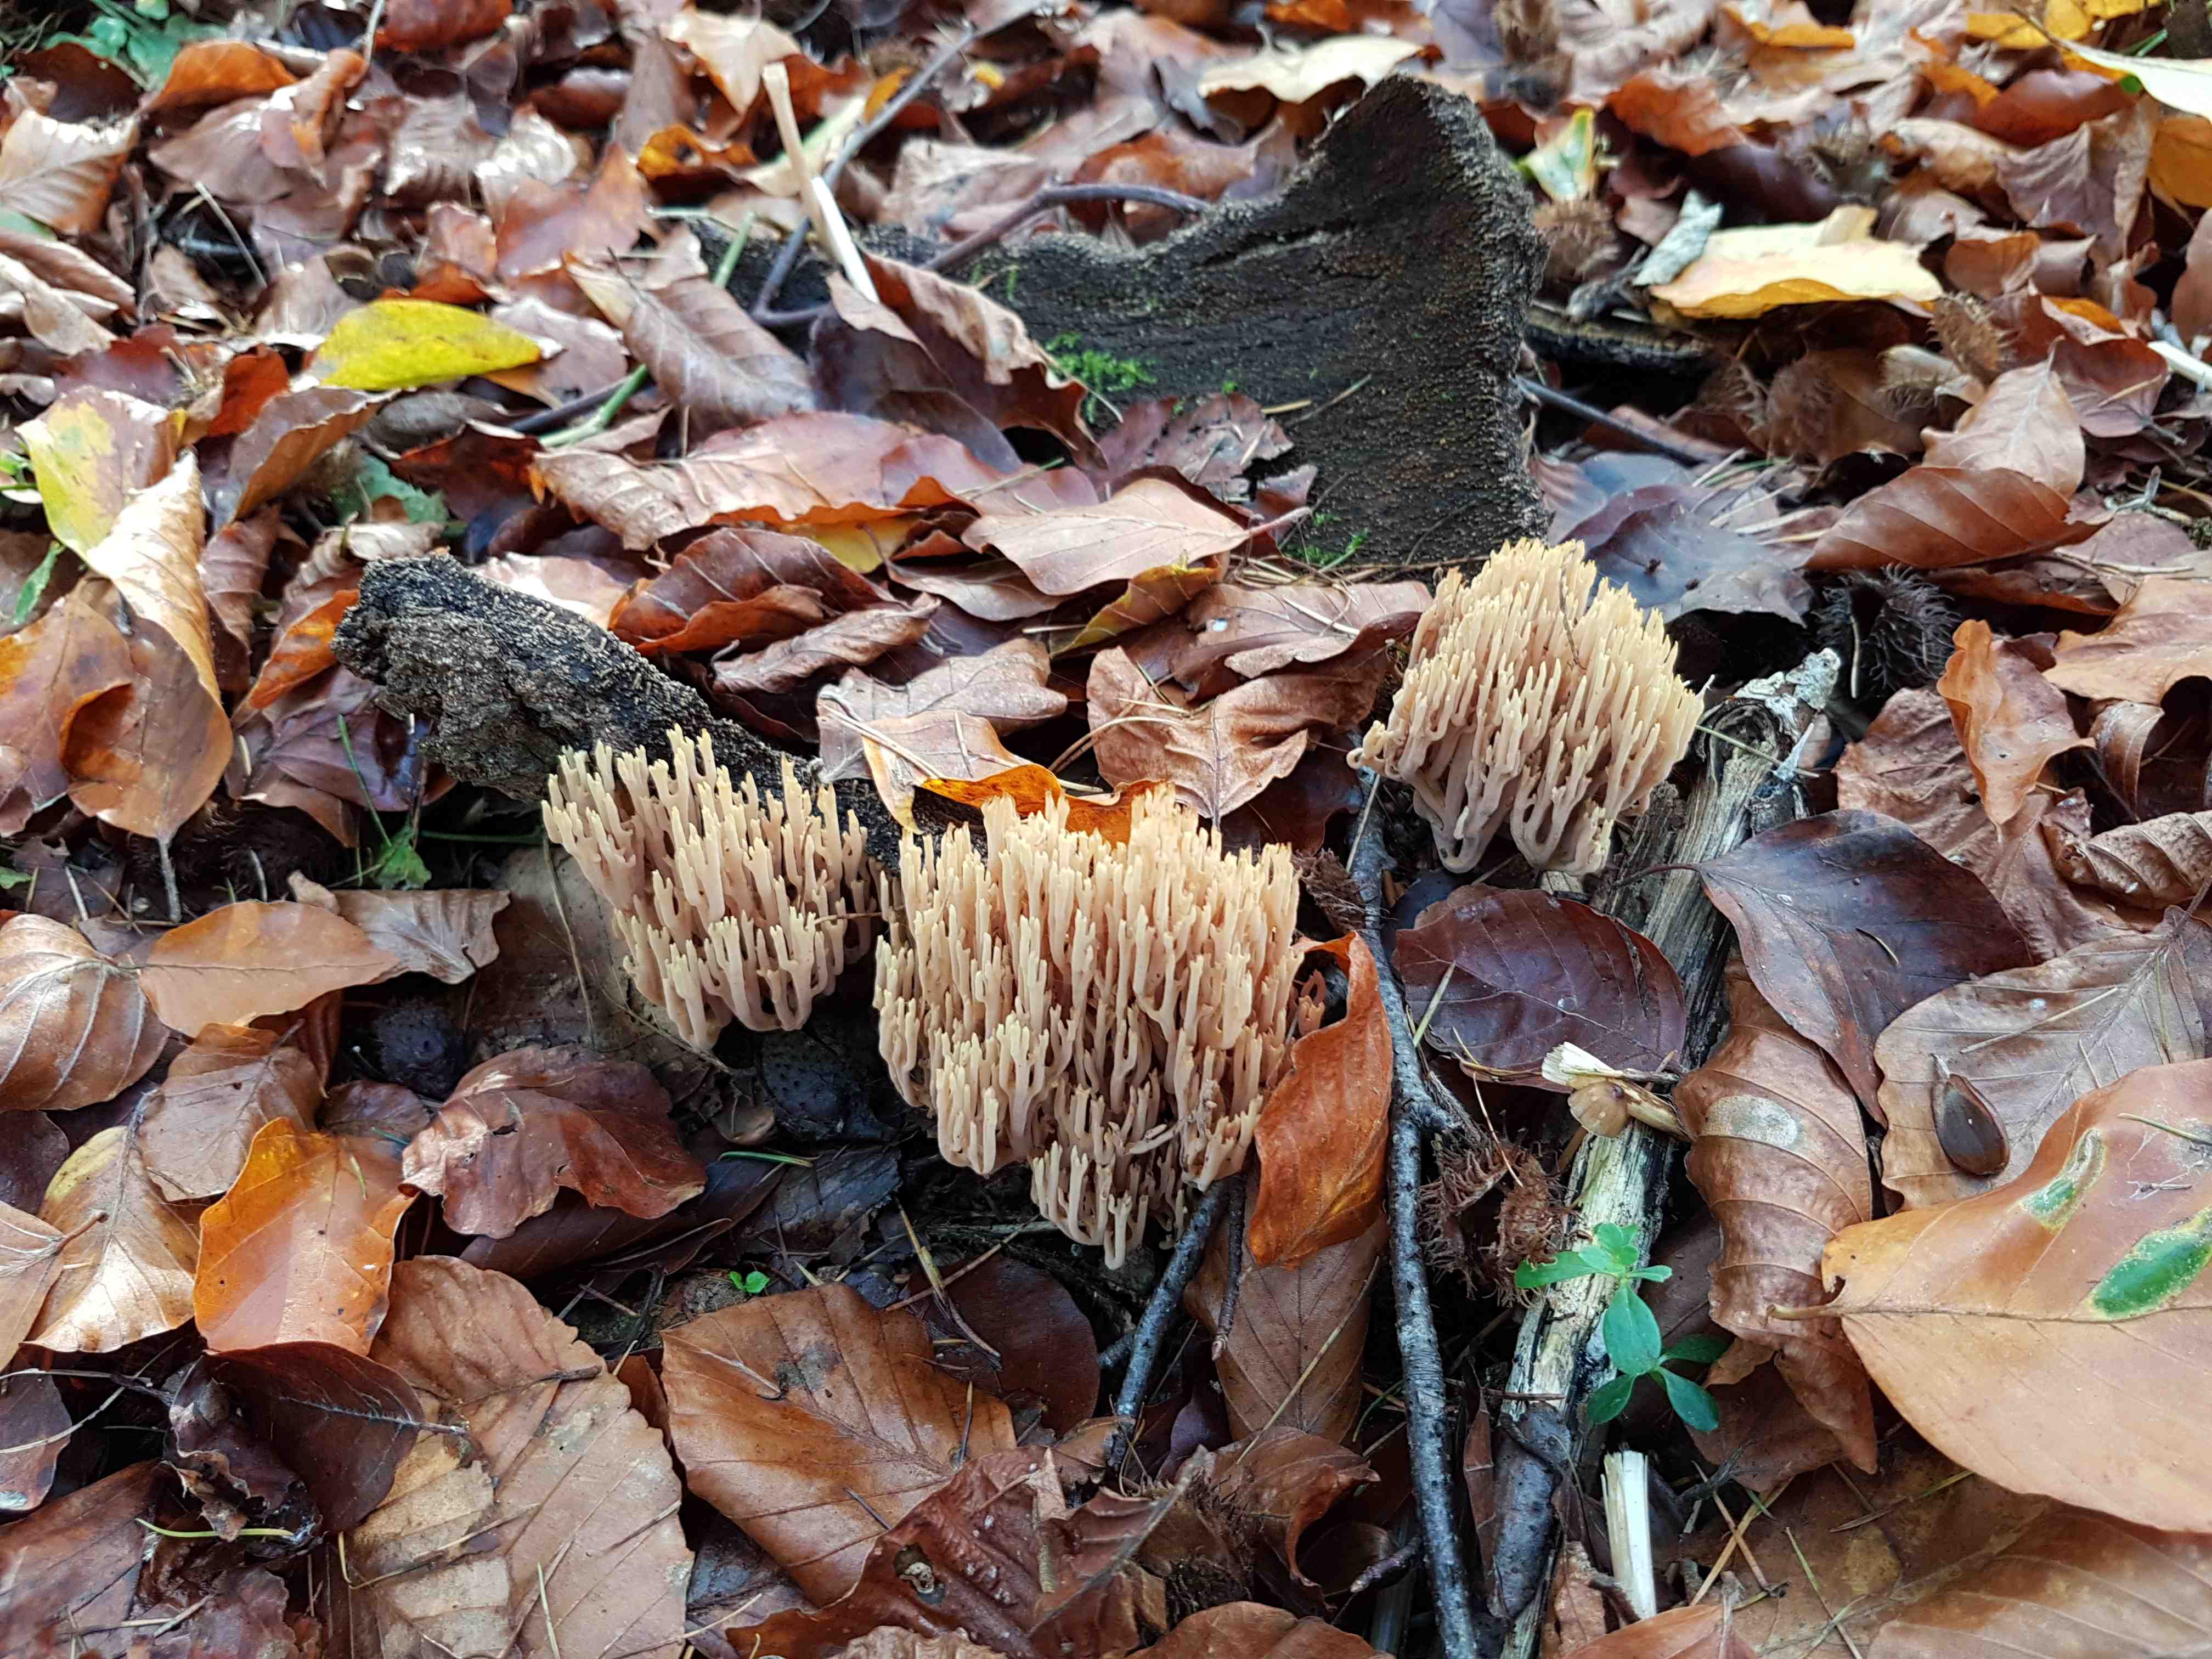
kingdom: Fungi
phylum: Basidiomycota
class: Agaricomycetes
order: Gomphales
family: Gomphaceae
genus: Ramaria
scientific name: Ramaria stricta
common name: rank koralsvamp
